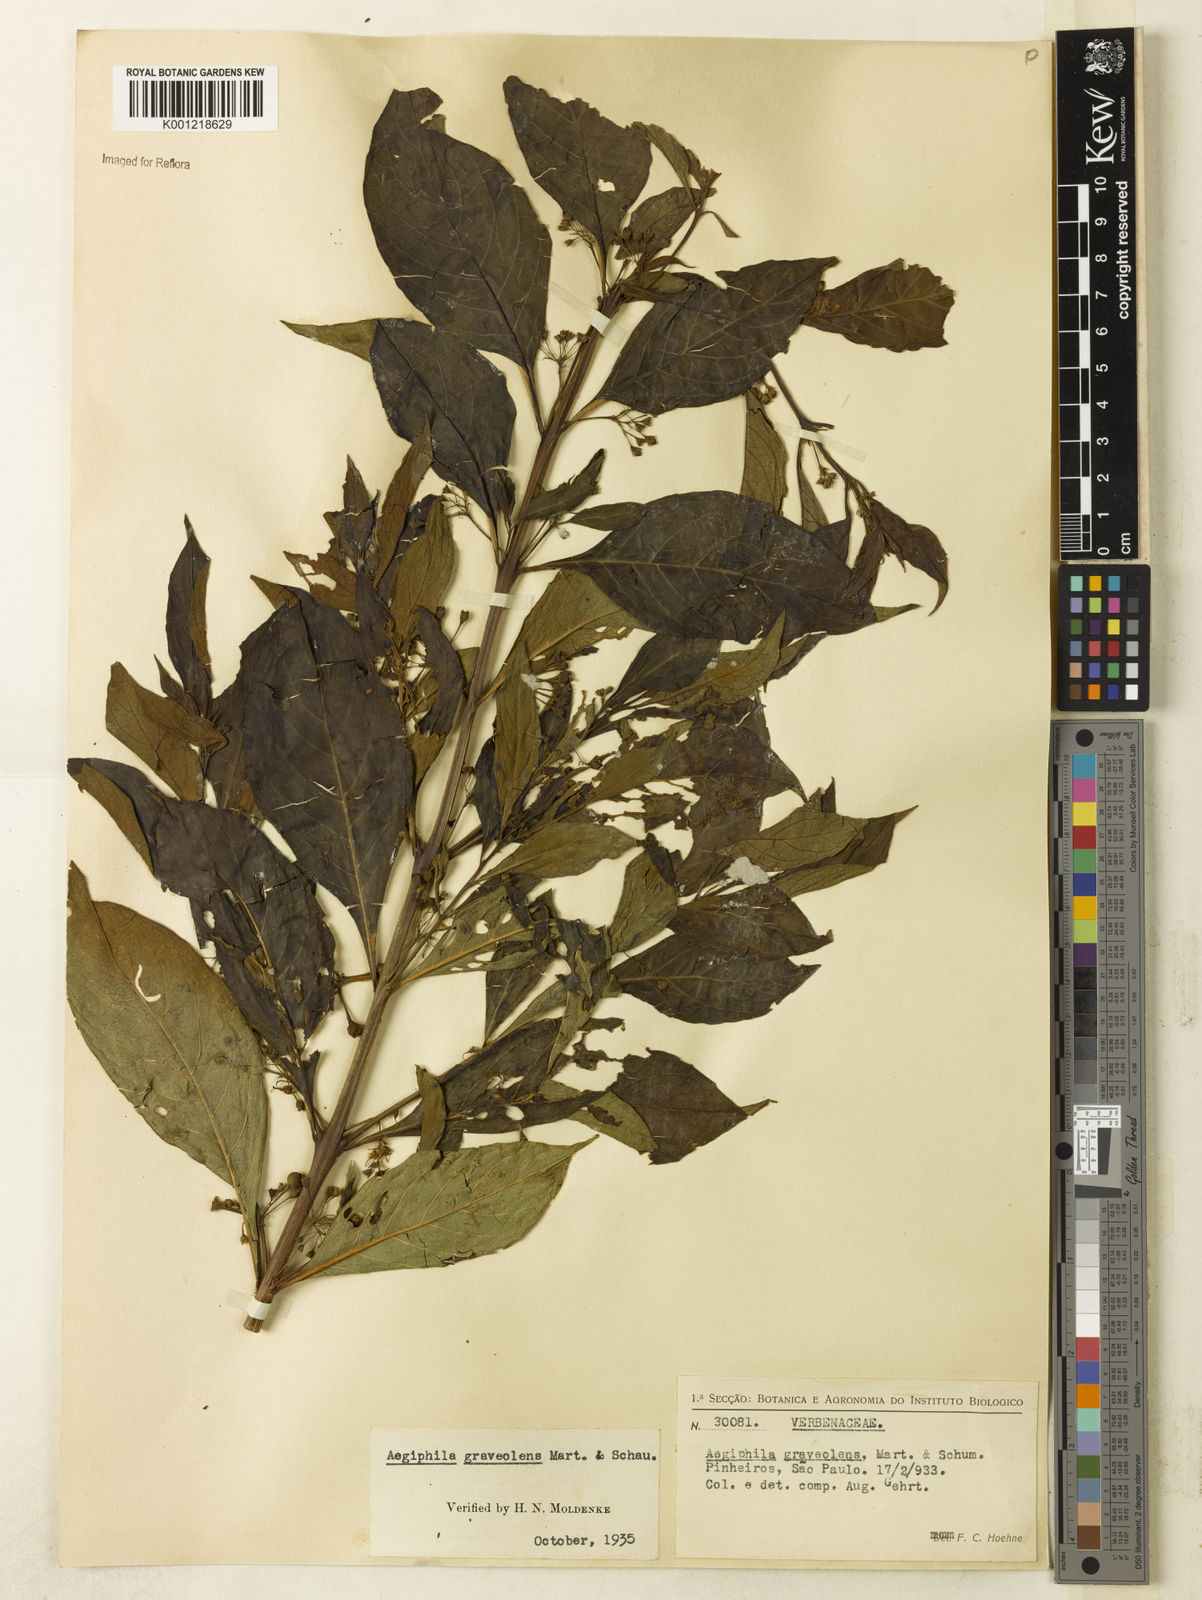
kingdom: Plantae
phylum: Tracheophyta
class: Magnoliopsida
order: Lamiales
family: Lamiaceae
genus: Aegiphila
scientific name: Aegiphila graveolens
